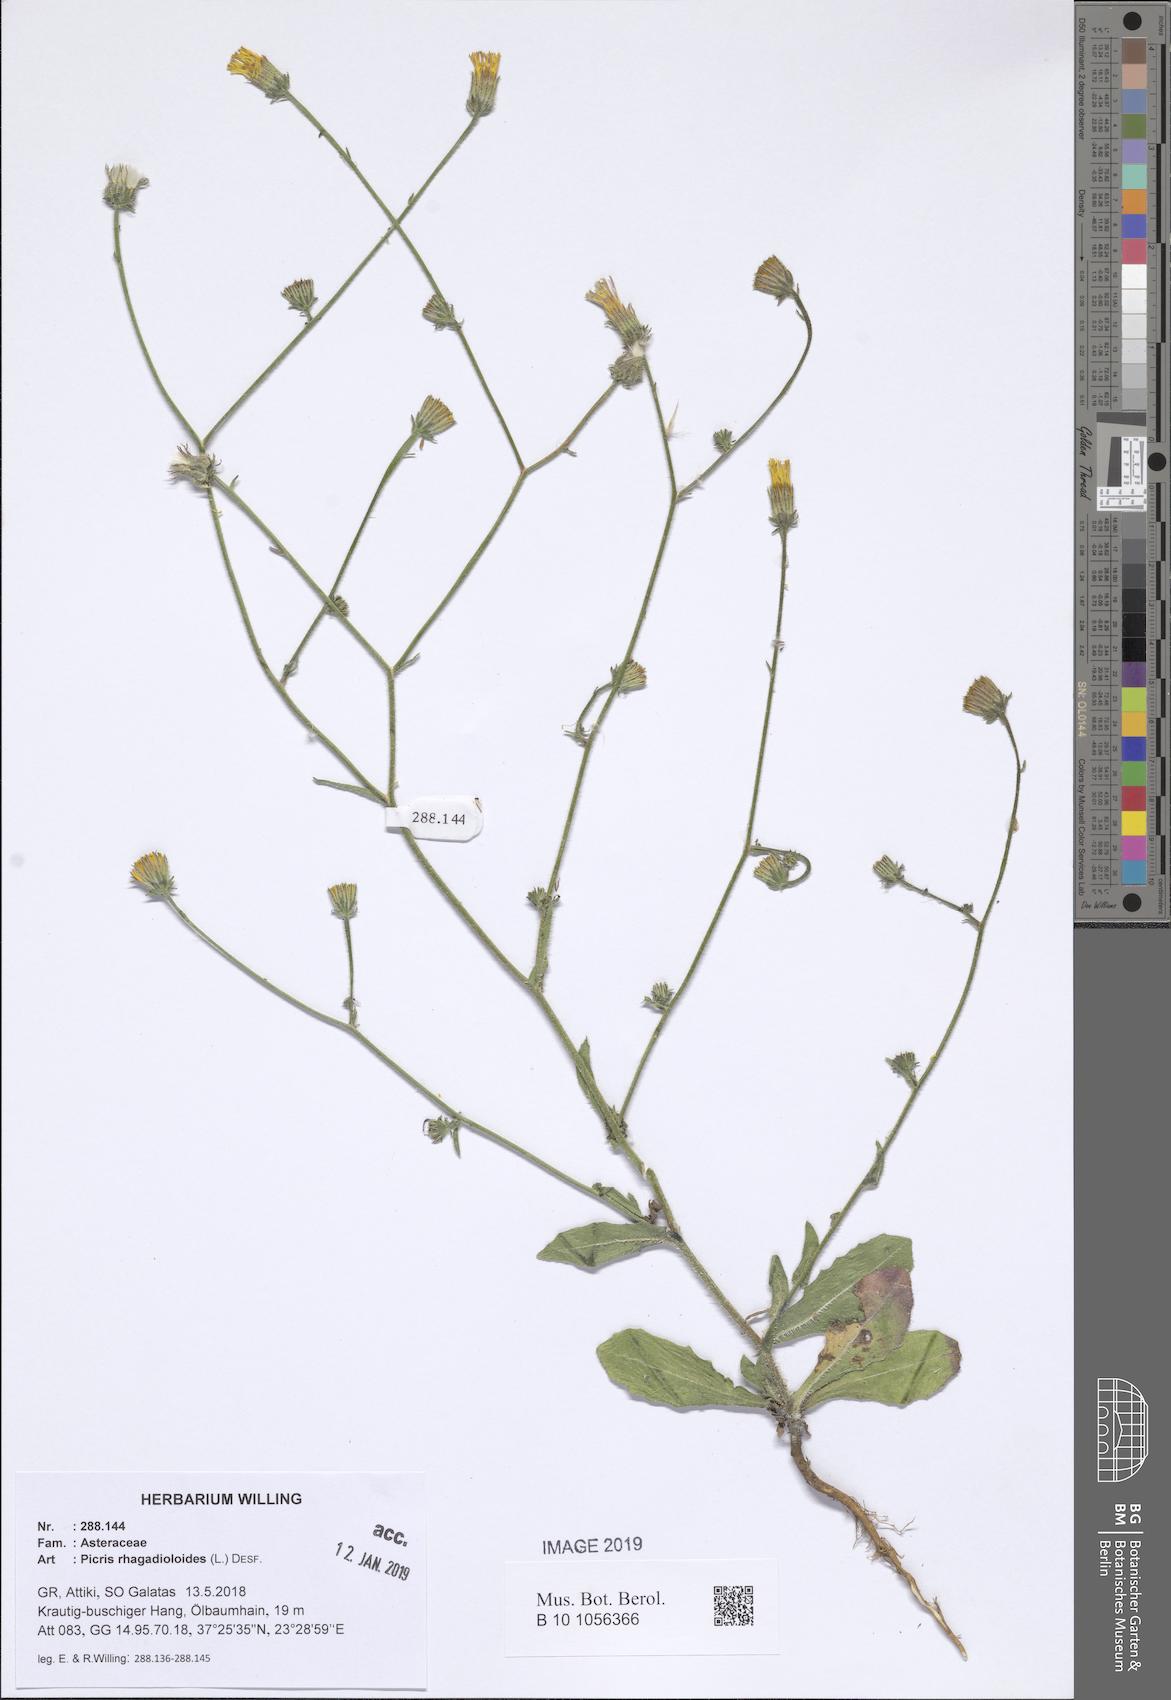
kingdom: Plantae
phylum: Tracheophyta
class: Magnoliopsida
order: Asterales
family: Asteraceae
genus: Picris
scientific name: Picris rhagadioloides
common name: Oxtongue
